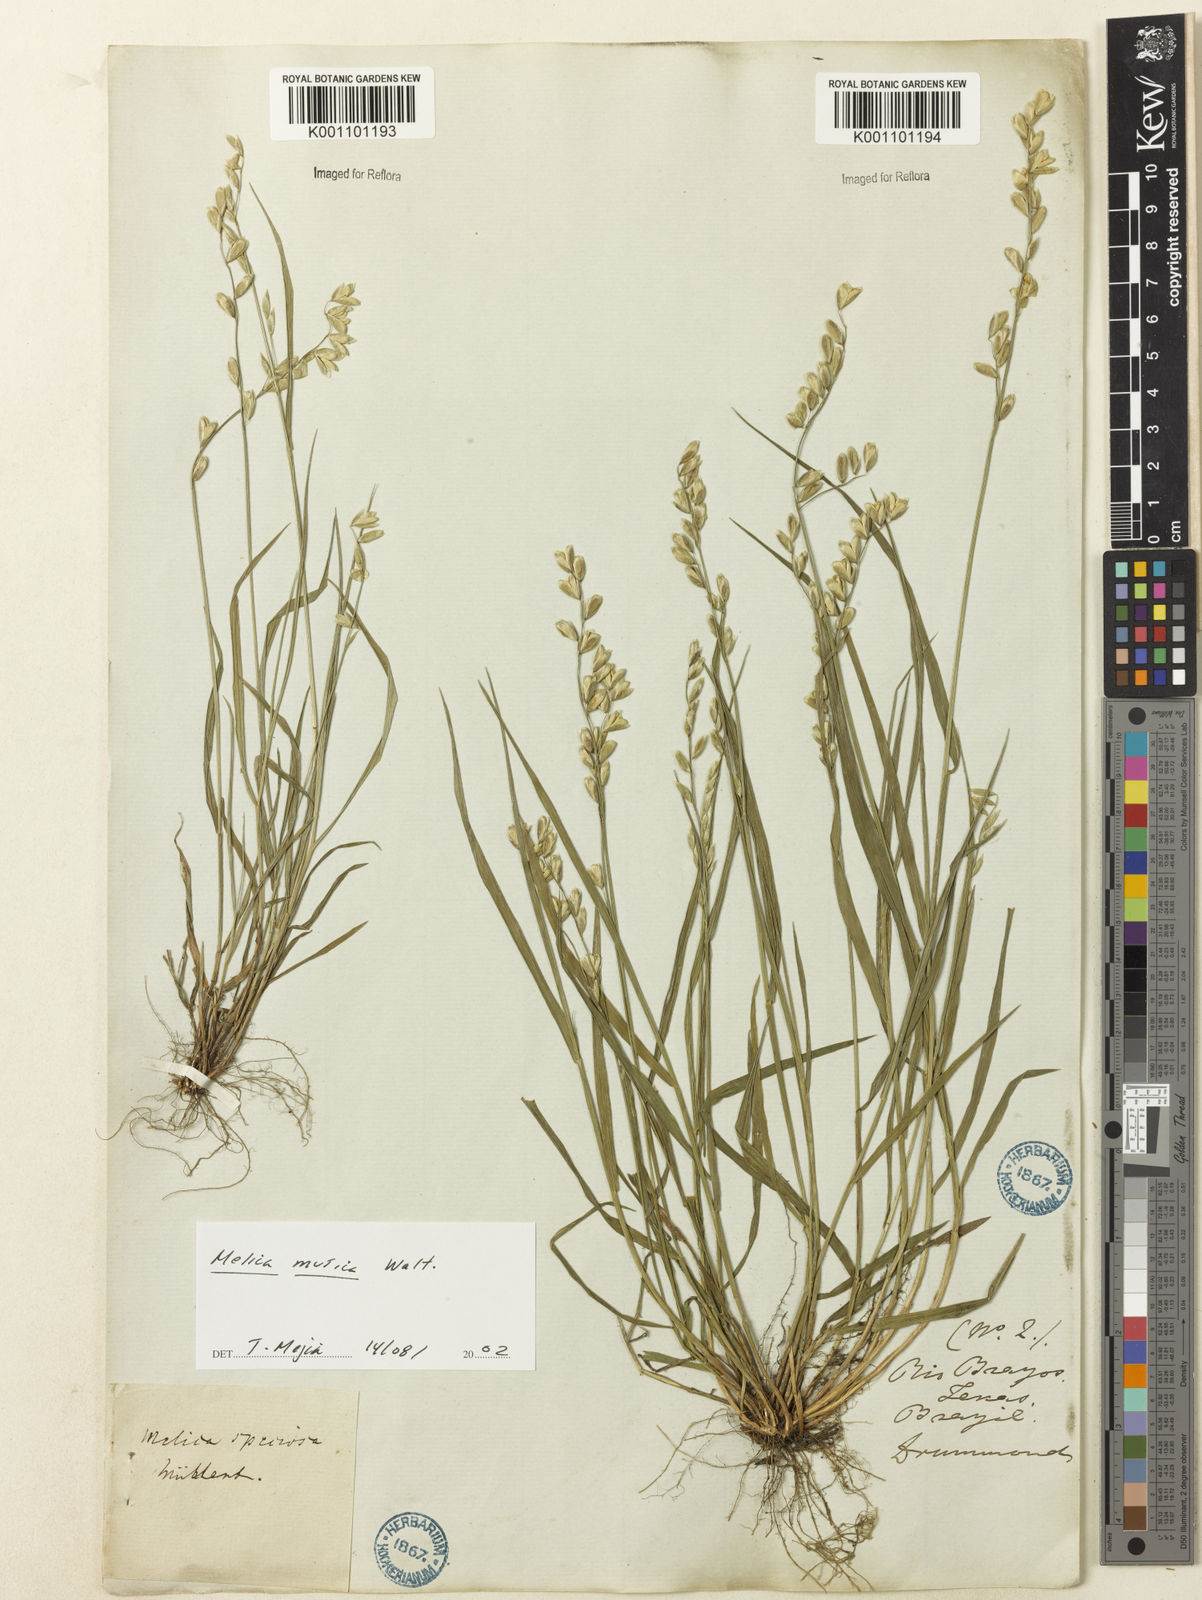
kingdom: Plantae
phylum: Tracheophyta
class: Liliopsida
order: Poales
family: Poaceae
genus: Melica
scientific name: Melica mutica
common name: Two-flower melic
